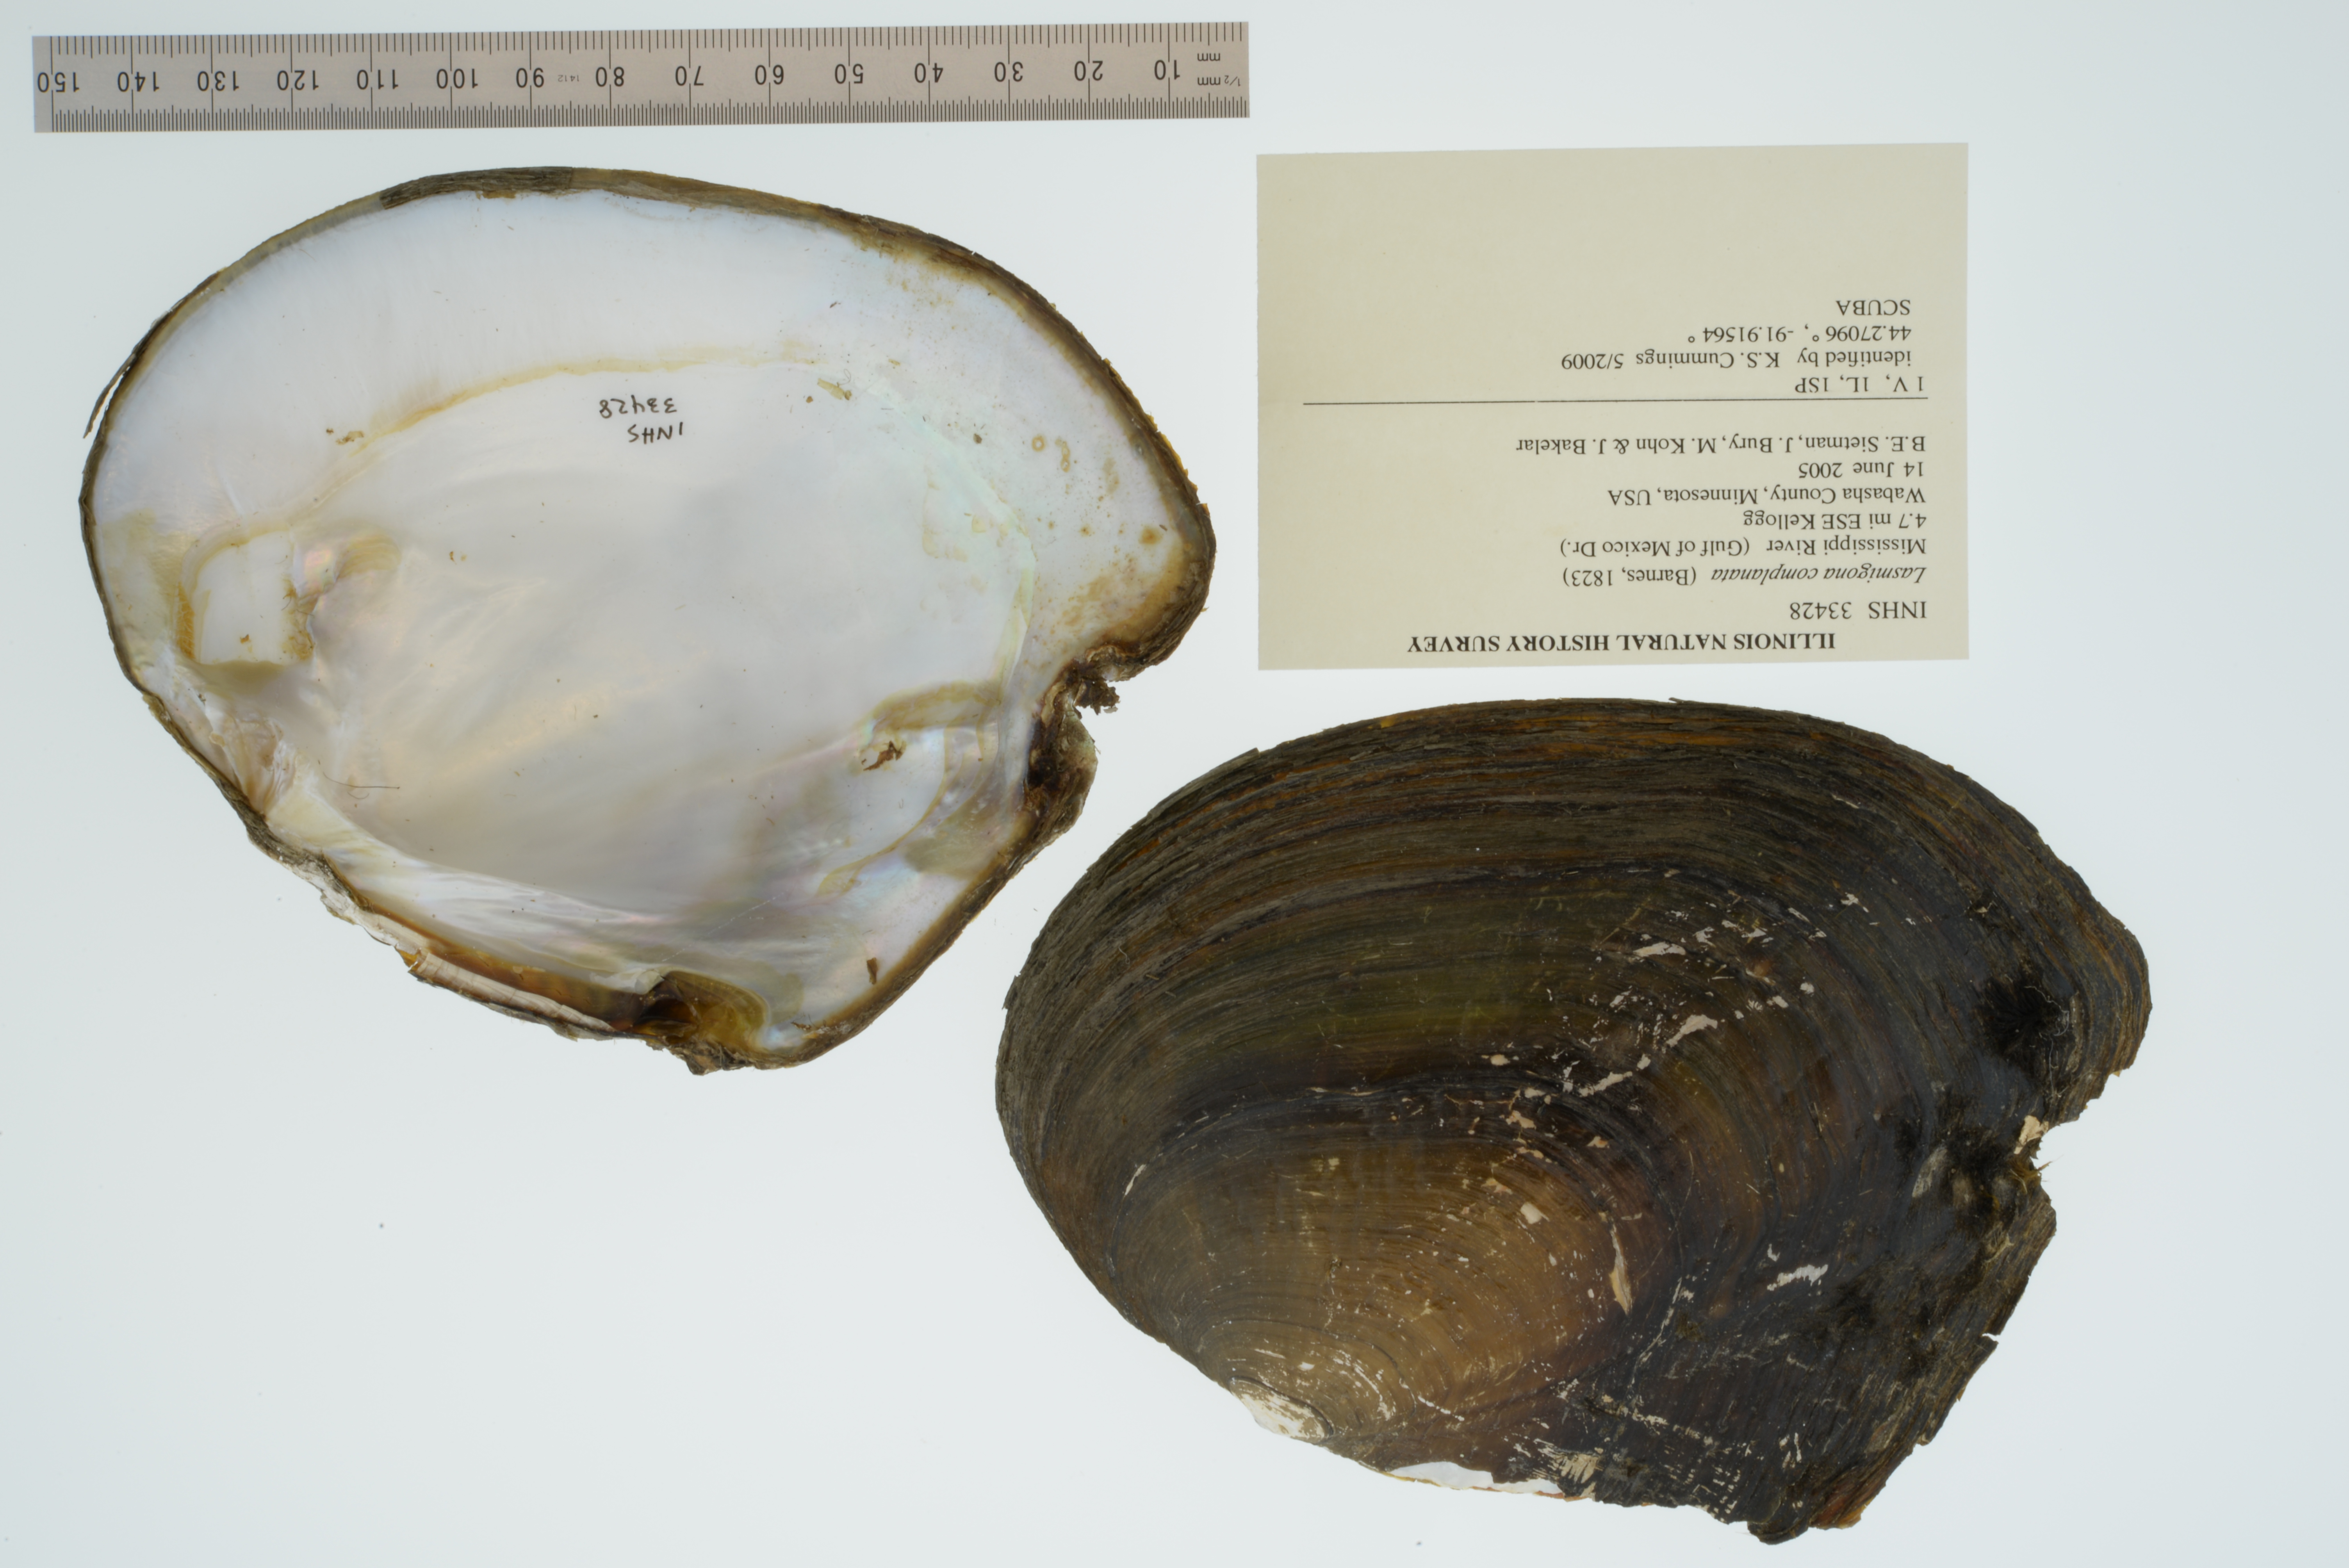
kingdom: Animalia
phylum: Mollusca
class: Bivalvia
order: Unionida
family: Unionidae
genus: Lasmigona
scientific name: Lasmigona complanata
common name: White heelsplitter
